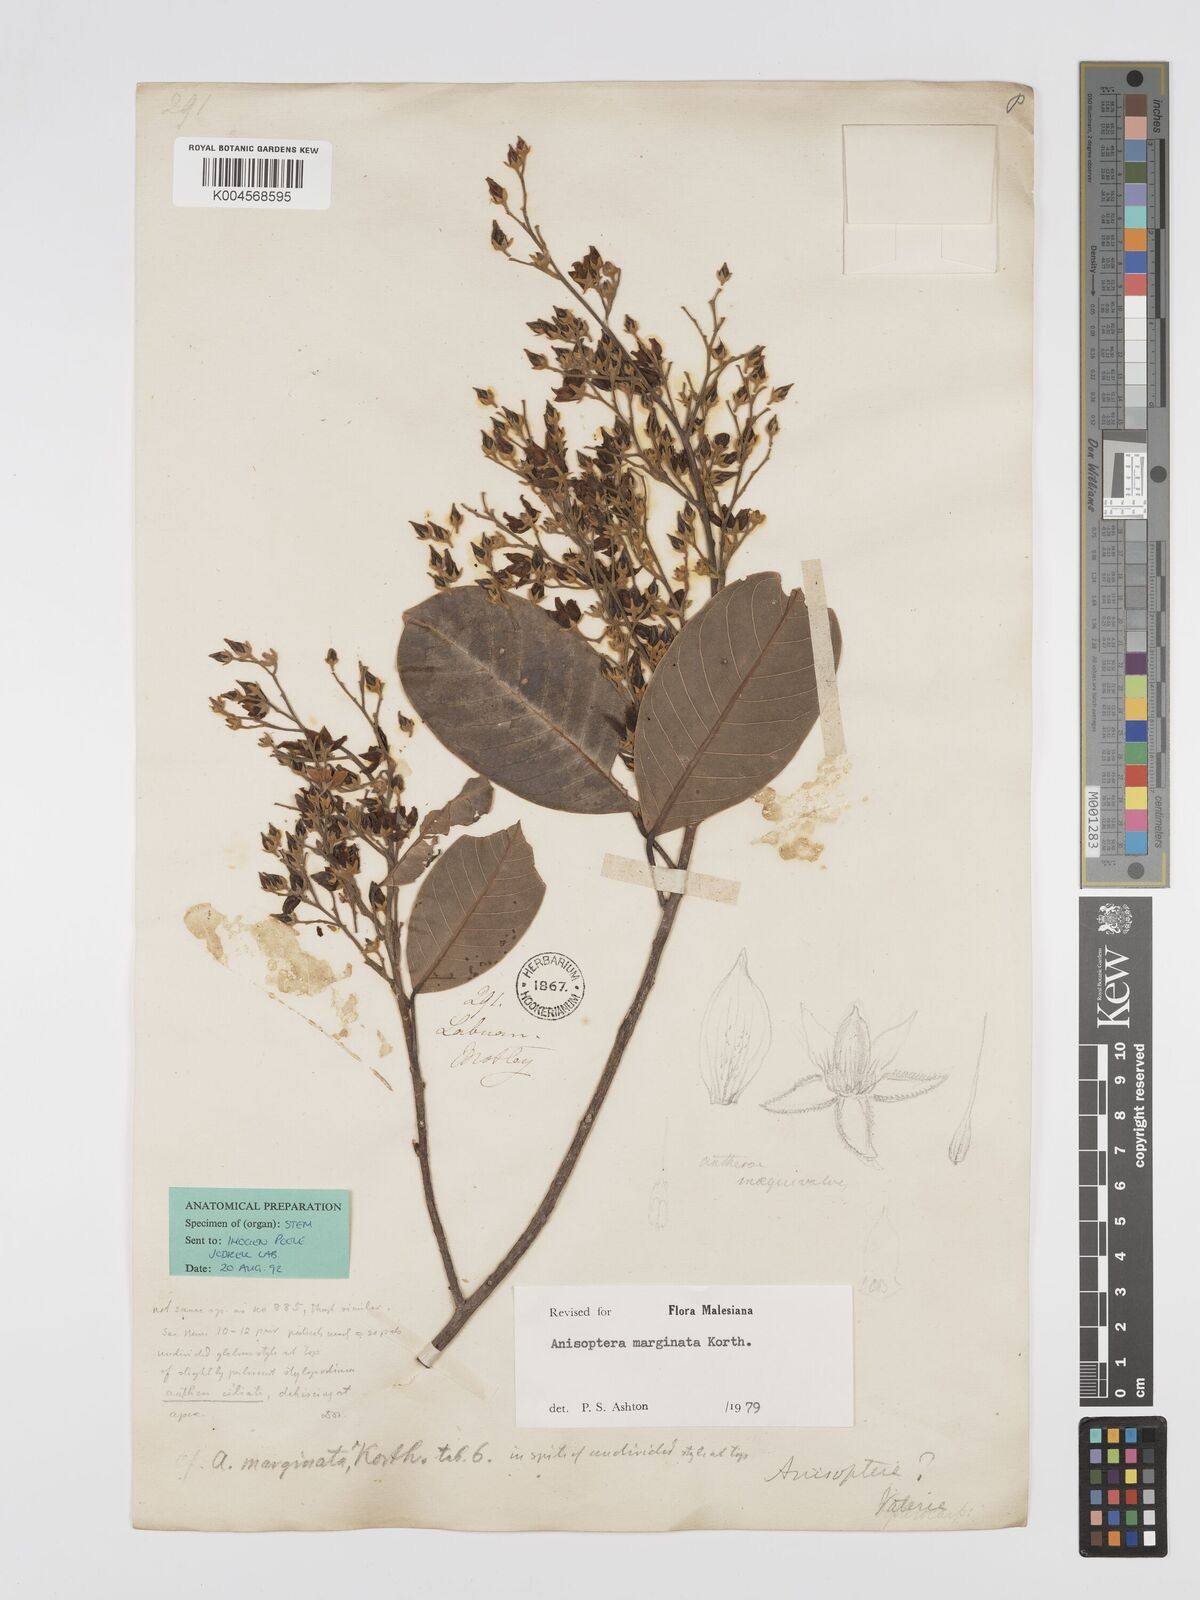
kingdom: Plantae
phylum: Tracheophyta
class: Magnoliopsida
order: Malvales
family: Dipterocarpaceae
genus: Anisoptera
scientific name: Anisoptera marginata
